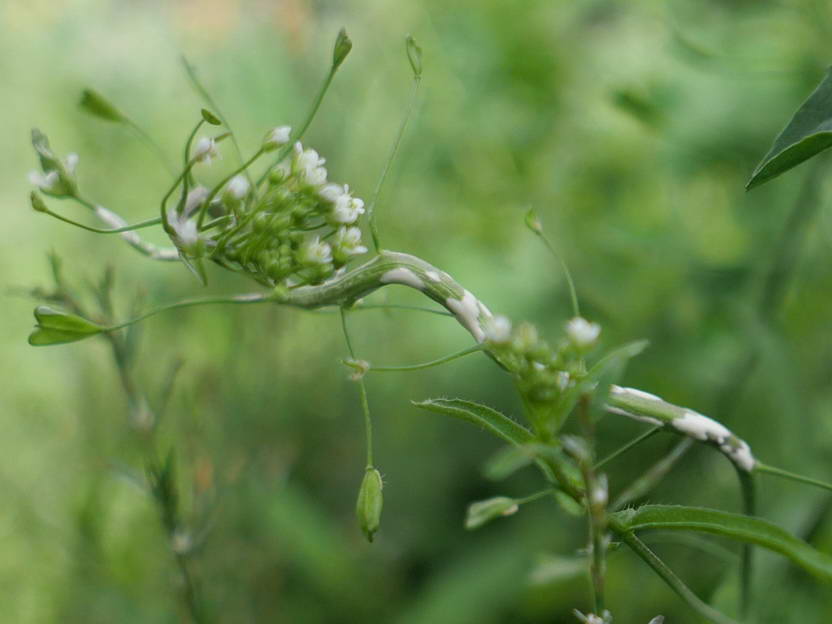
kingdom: Chromista
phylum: Oomycota
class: Peronosporea
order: Albuginales
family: Albuginaceae
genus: Albugo
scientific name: Albugo candida
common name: Crucifer white blister
